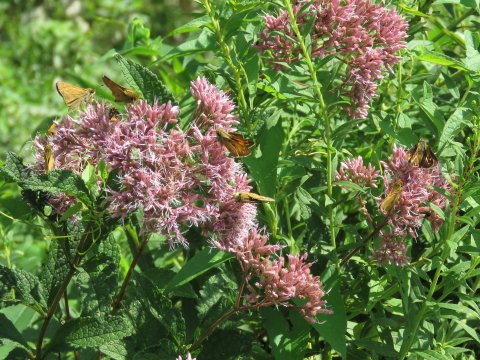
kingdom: Animalia
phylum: Arthropoda
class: Insecta
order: Lepidoptera
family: Hesperiidae
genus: Atalopedes
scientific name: Atalopedes campestris
